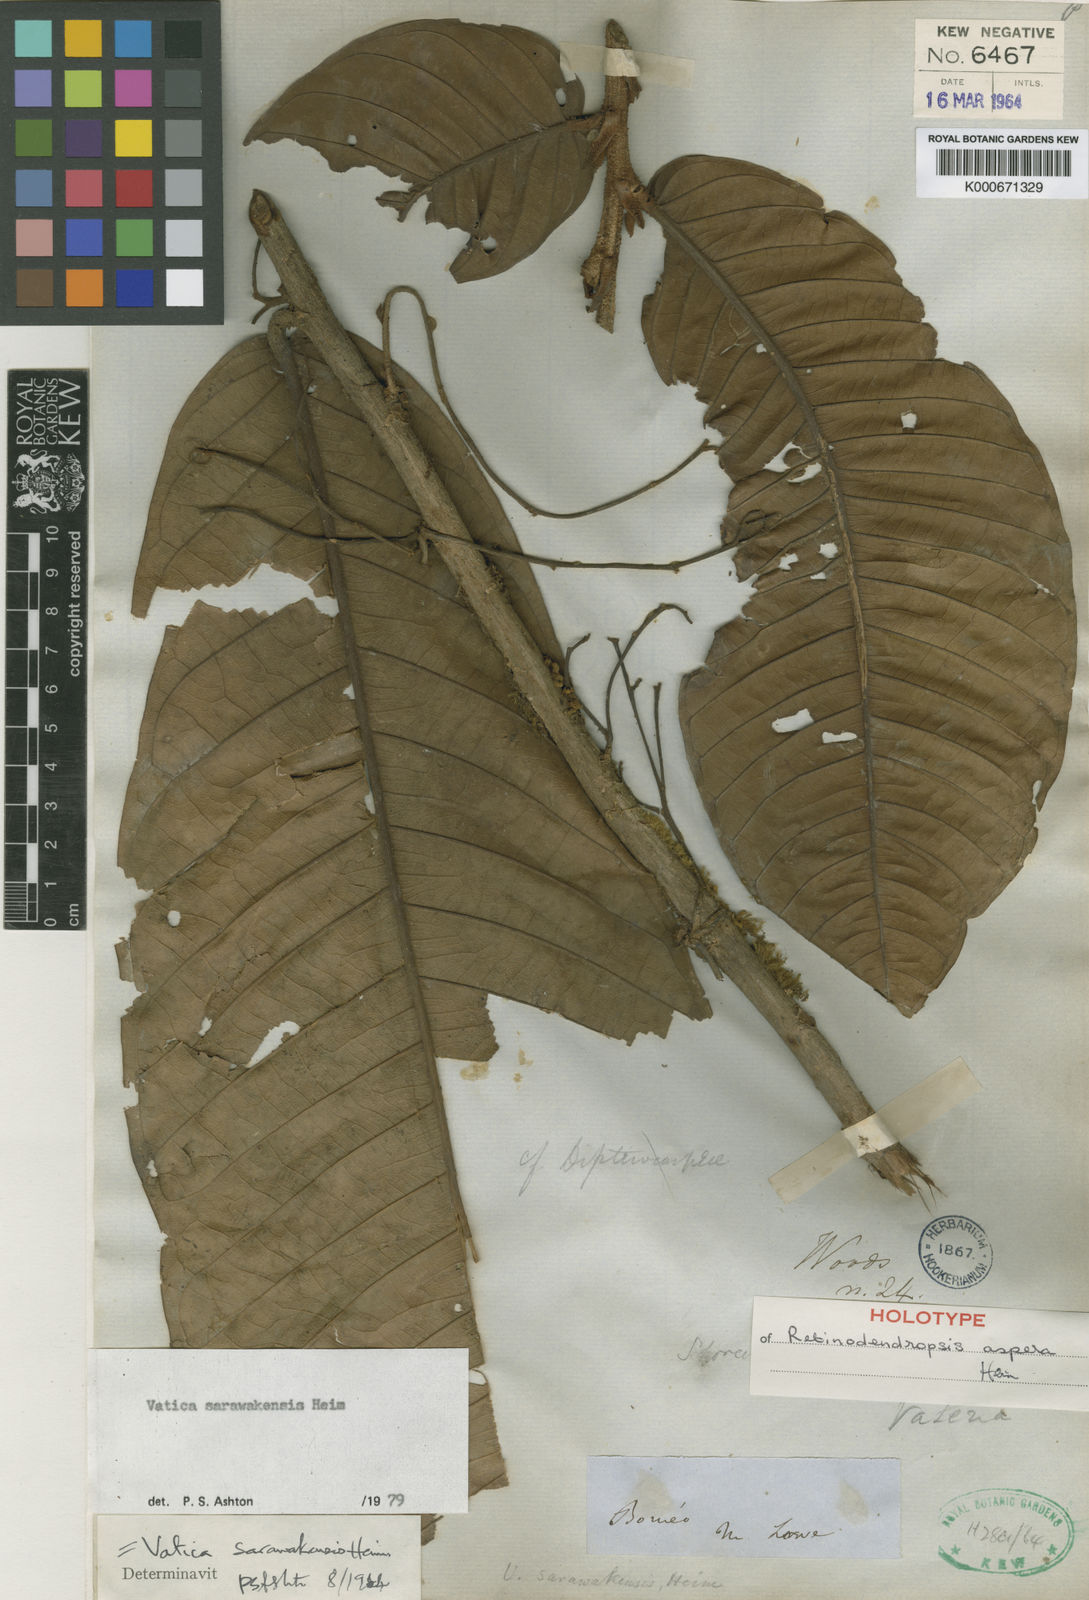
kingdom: Plantae
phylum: Tracheophyta
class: Magnoliopsida
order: Malvales
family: Dipterocarpaceae
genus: Vatica
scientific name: Vatica sarawakensis
